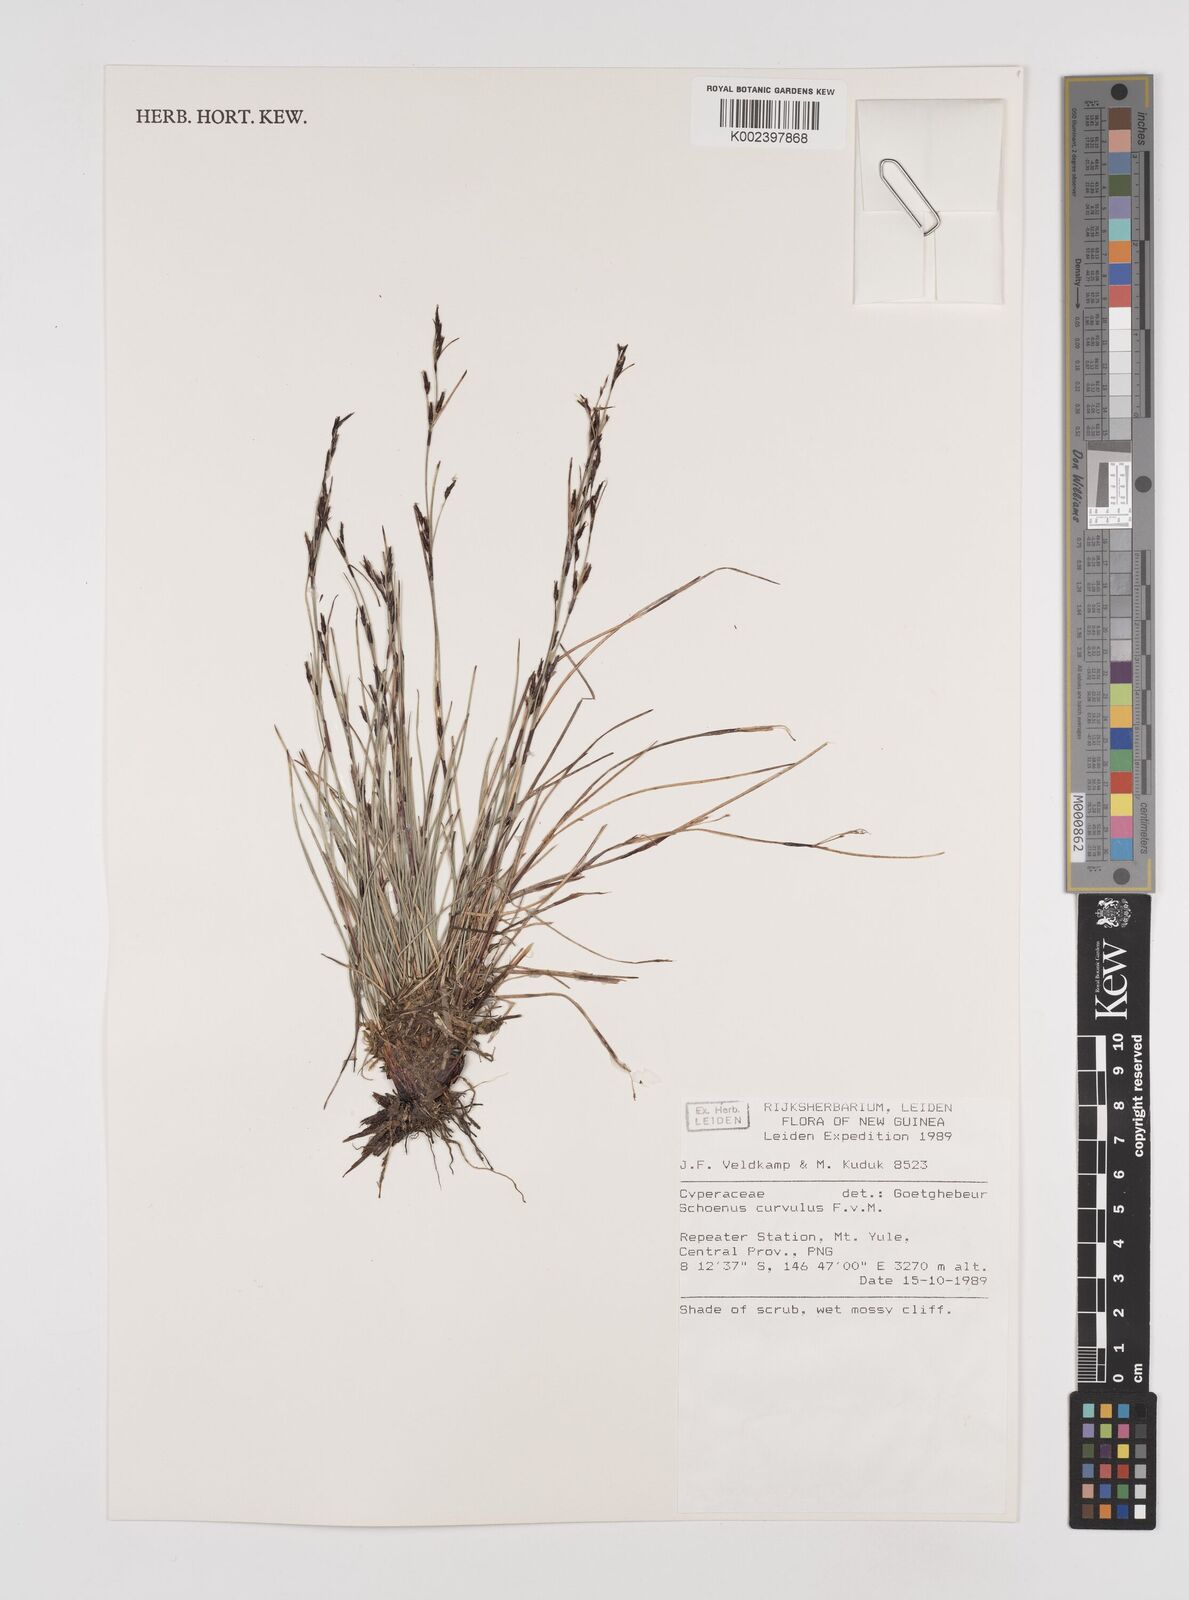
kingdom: Plantae
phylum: Tracheophyta
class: Liliopsida
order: Poales
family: Cyperaceae
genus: Schoenus
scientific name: Schoenus curvulus
